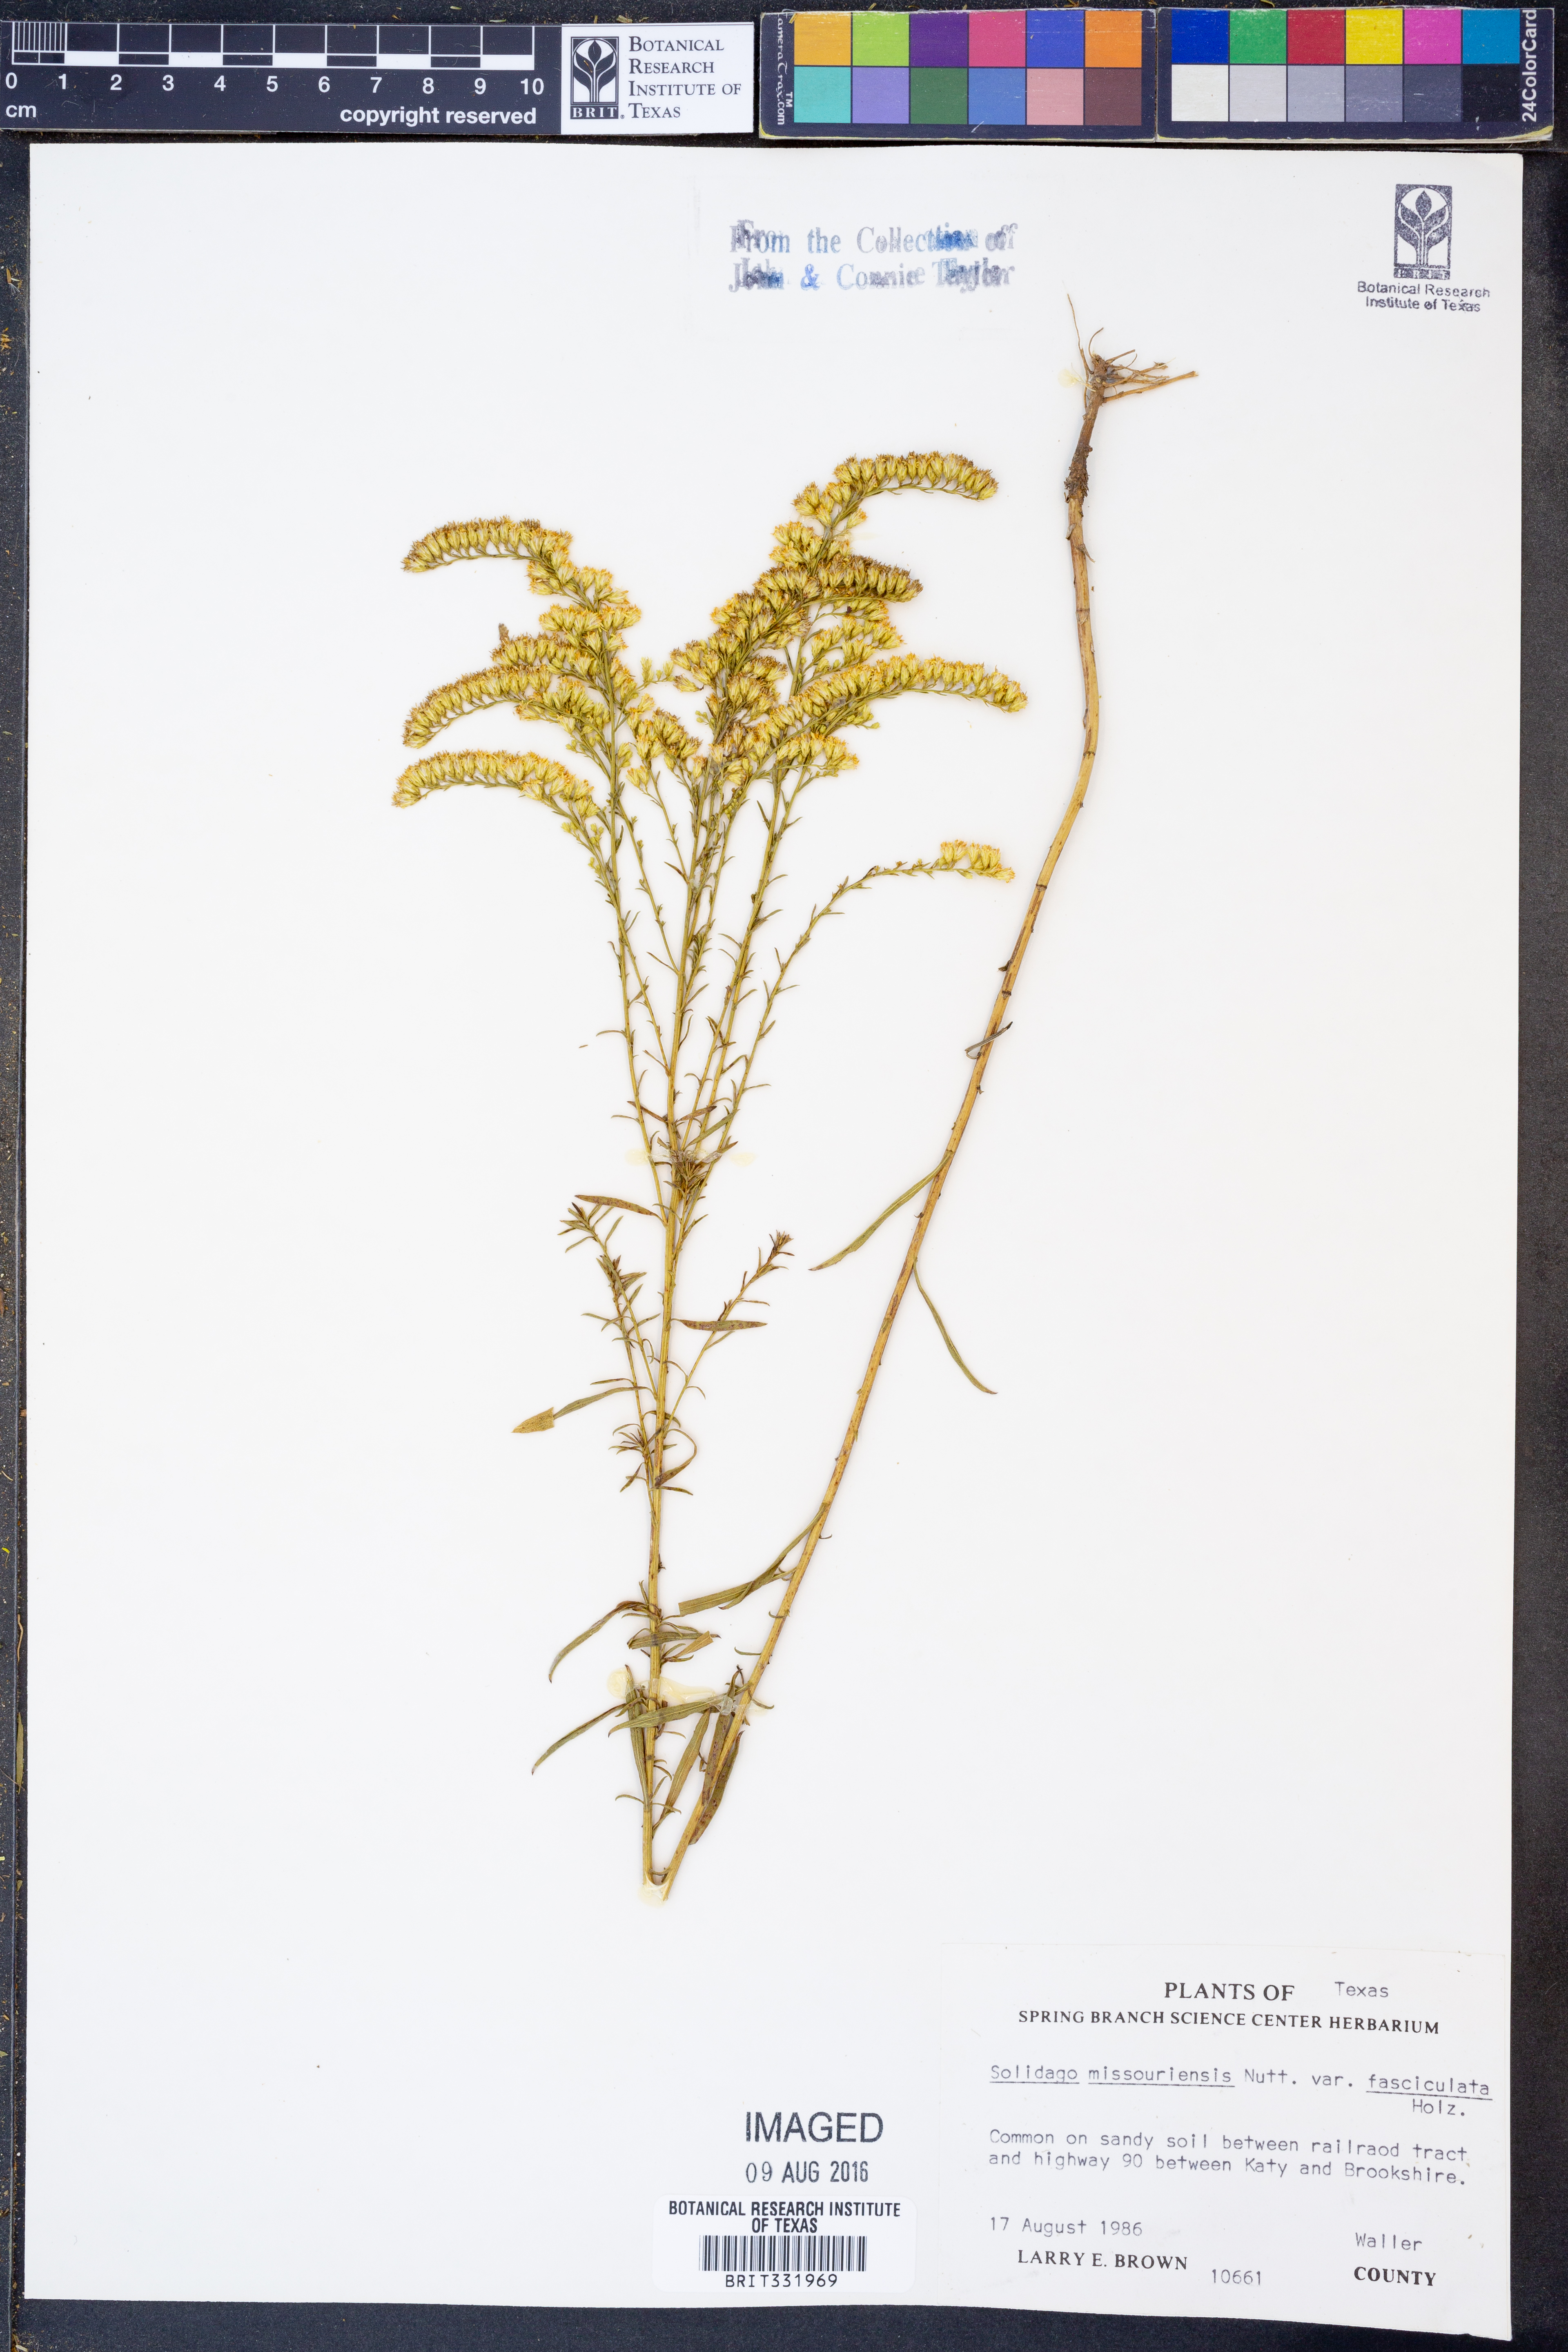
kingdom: Plantae
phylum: Tracheophyta
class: Magnoliopsida
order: Asterales
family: Asteraceae
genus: Solidago
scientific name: Solidago missouriensis
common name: Prairie goldenrod
